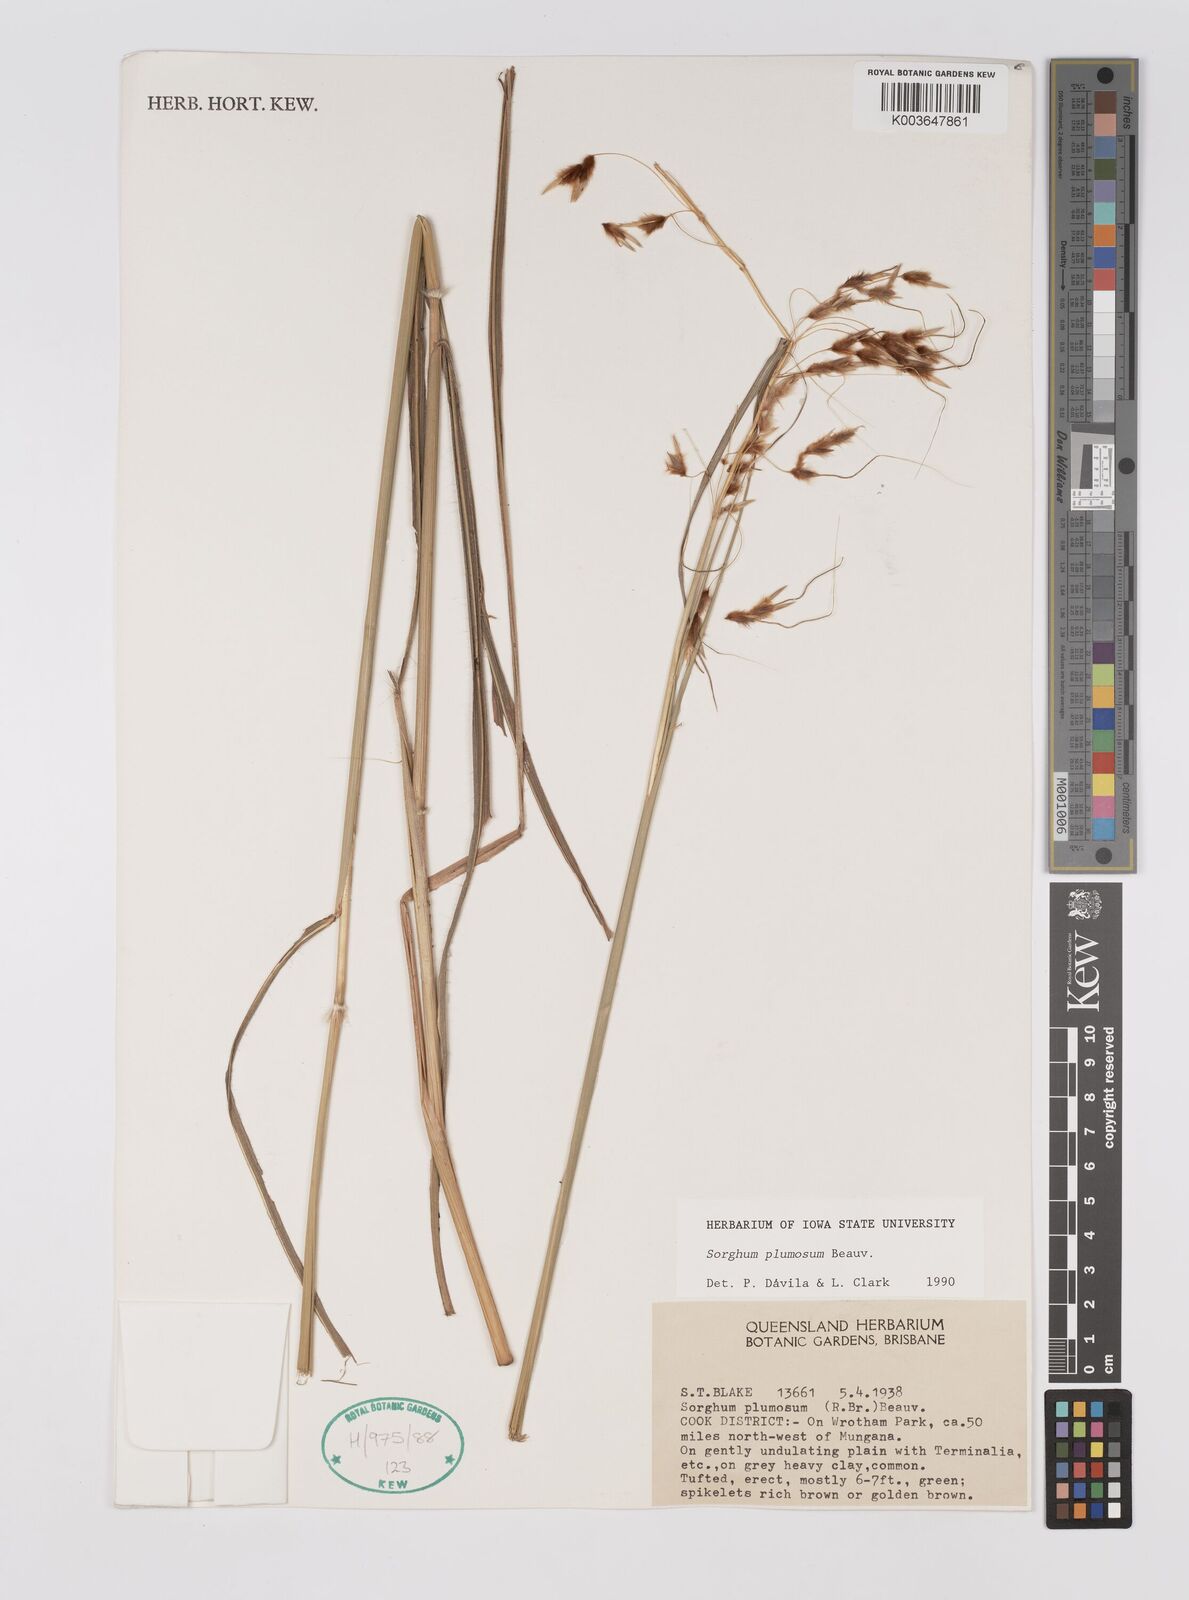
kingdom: Plantae
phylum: Tracheophyta
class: Liliopsida
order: Poales
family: Poaceae
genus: Sarga
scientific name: Sarga plumosa
